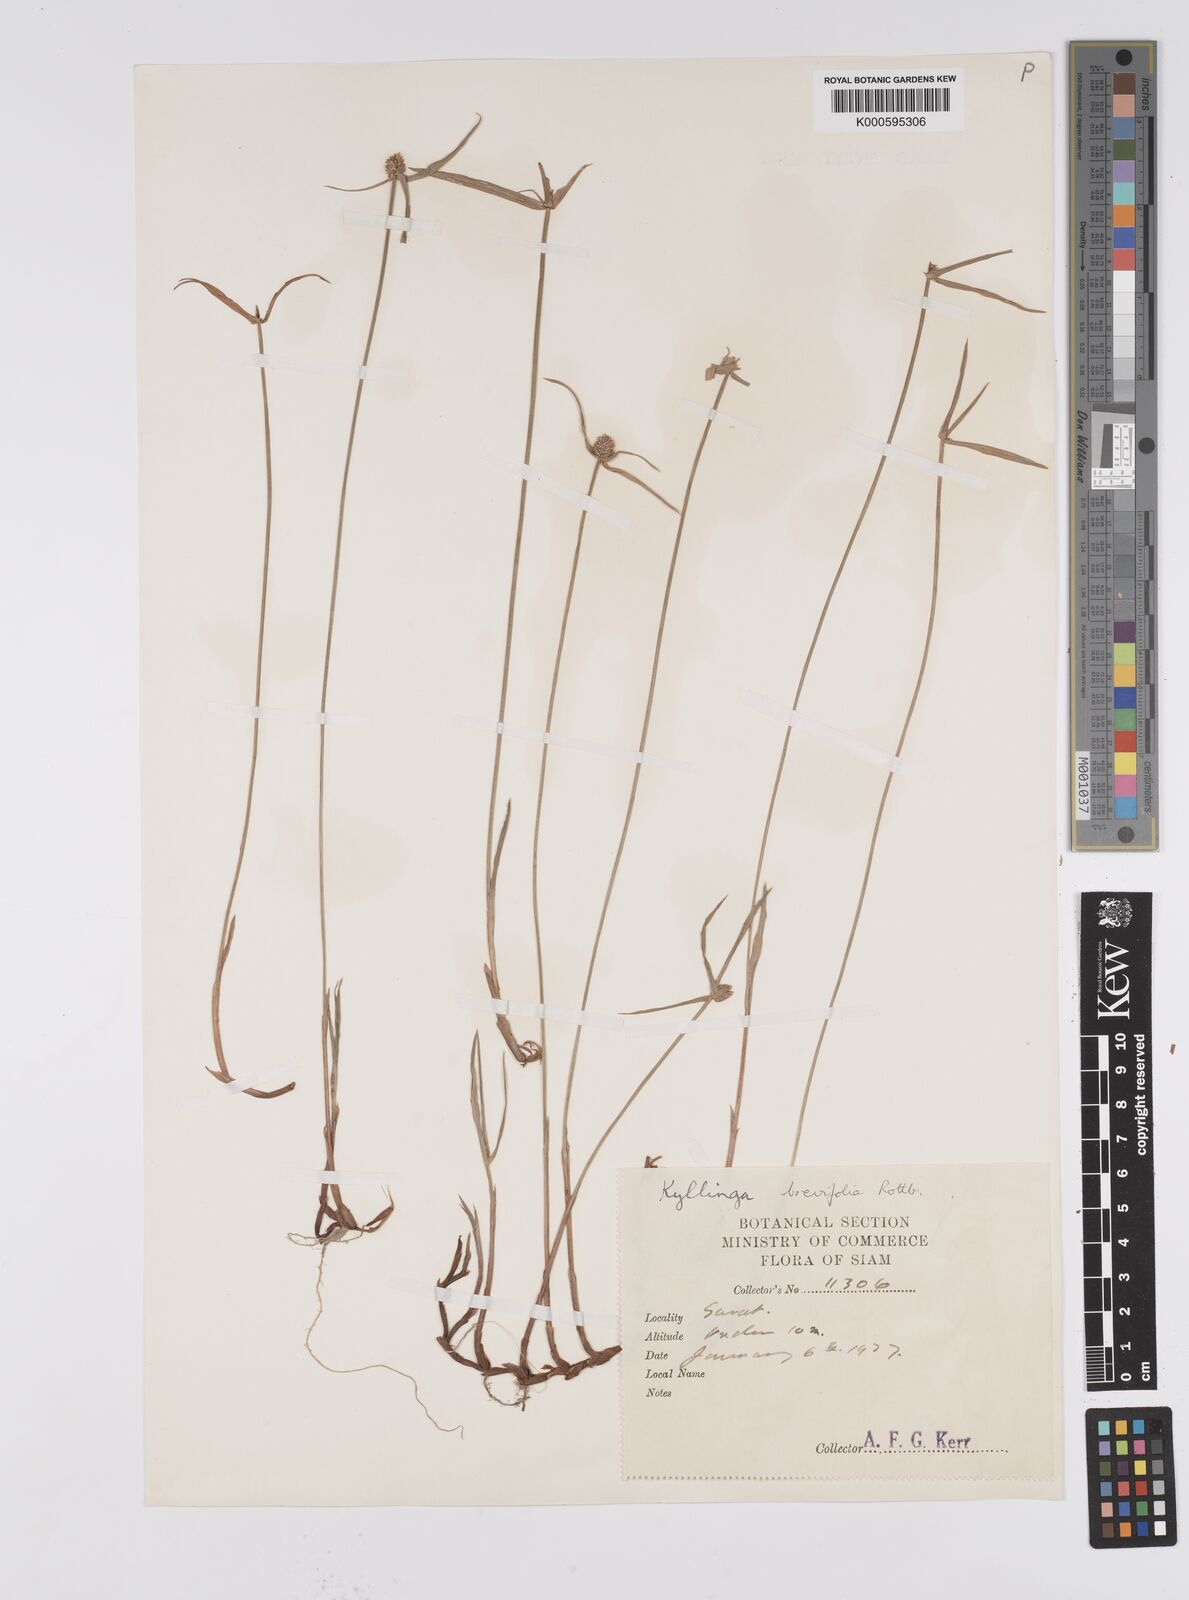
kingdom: Plantae
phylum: Tracheophyta
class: Liliopsida
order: Poales
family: Cyperaceae
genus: Cyperus
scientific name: Cyperus brevifolius
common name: Globe kyllinga
